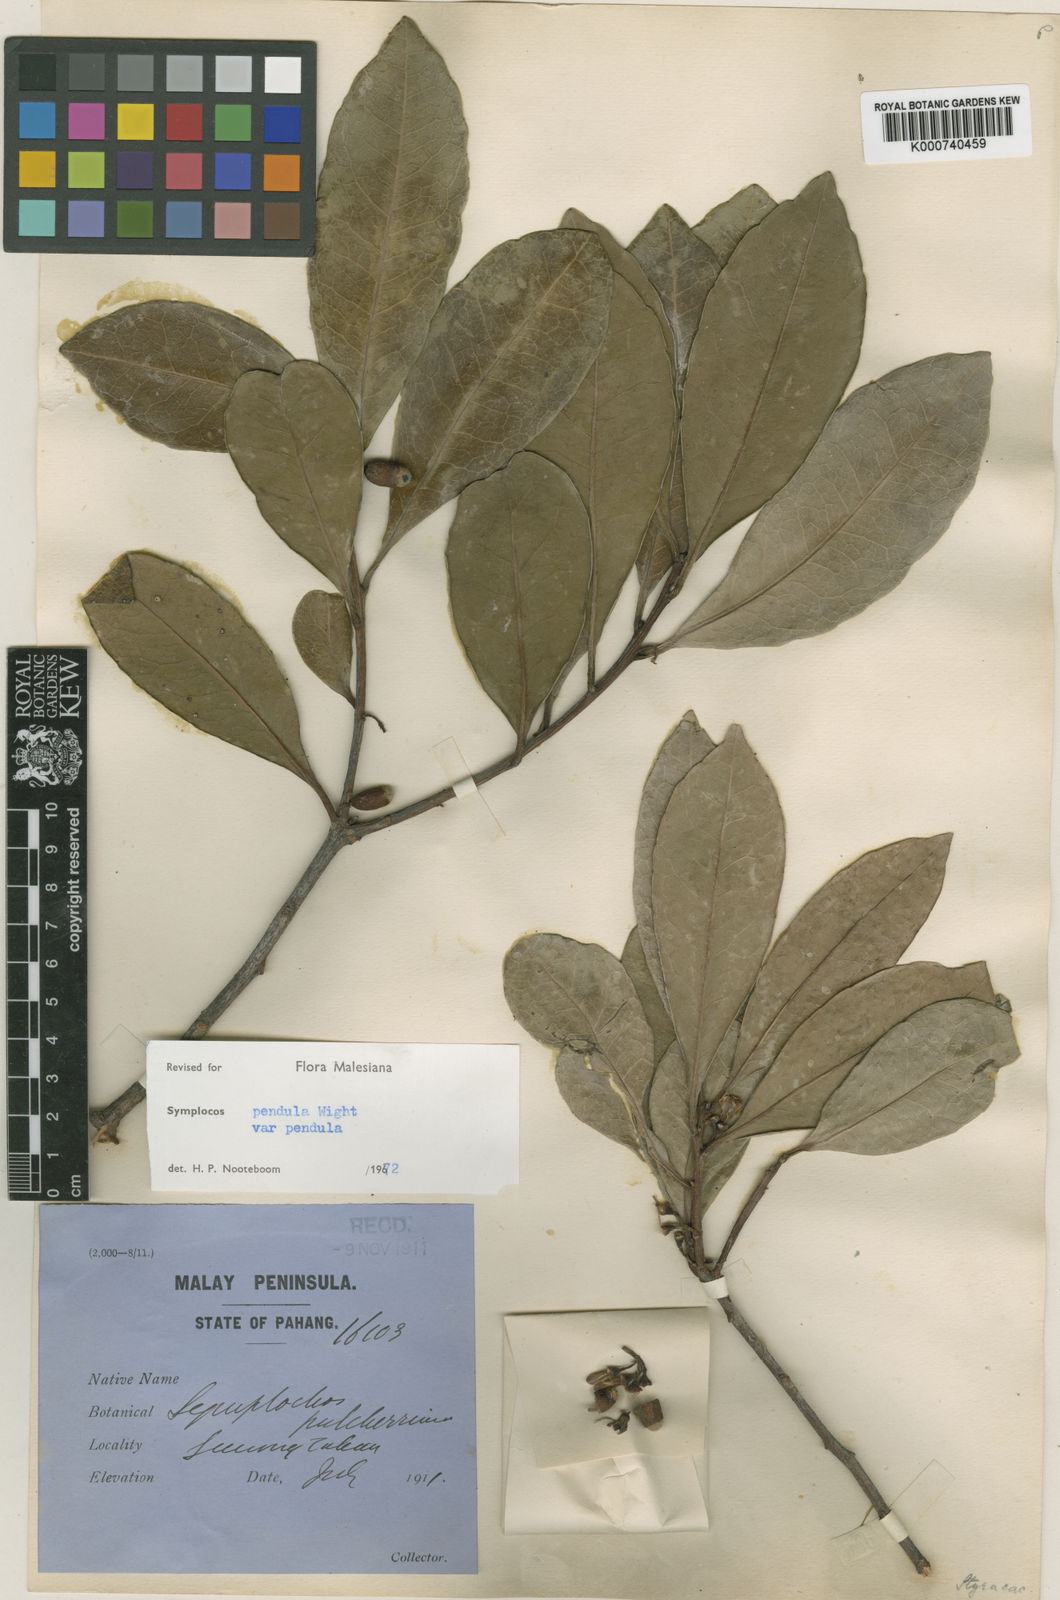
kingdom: Plantae
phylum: Tracheophyta
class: Magnoliopsida
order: Ericales
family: Symplocaceae
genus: Symplocos
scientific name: Symplocos pendula
